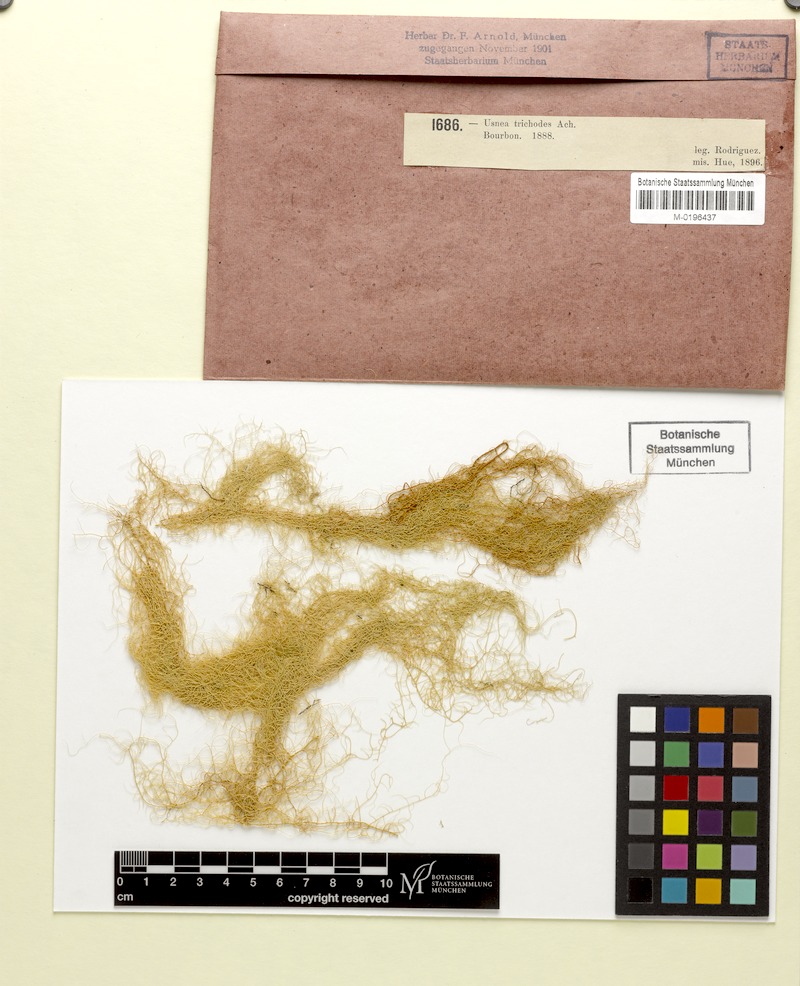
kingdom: Fungi
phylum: Ascomycota
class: Lecanoromycetes
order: Lecanorales
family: Parmeliaceae
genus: Usnea
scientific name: Usnea trichodea
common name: Bony beard lichen
